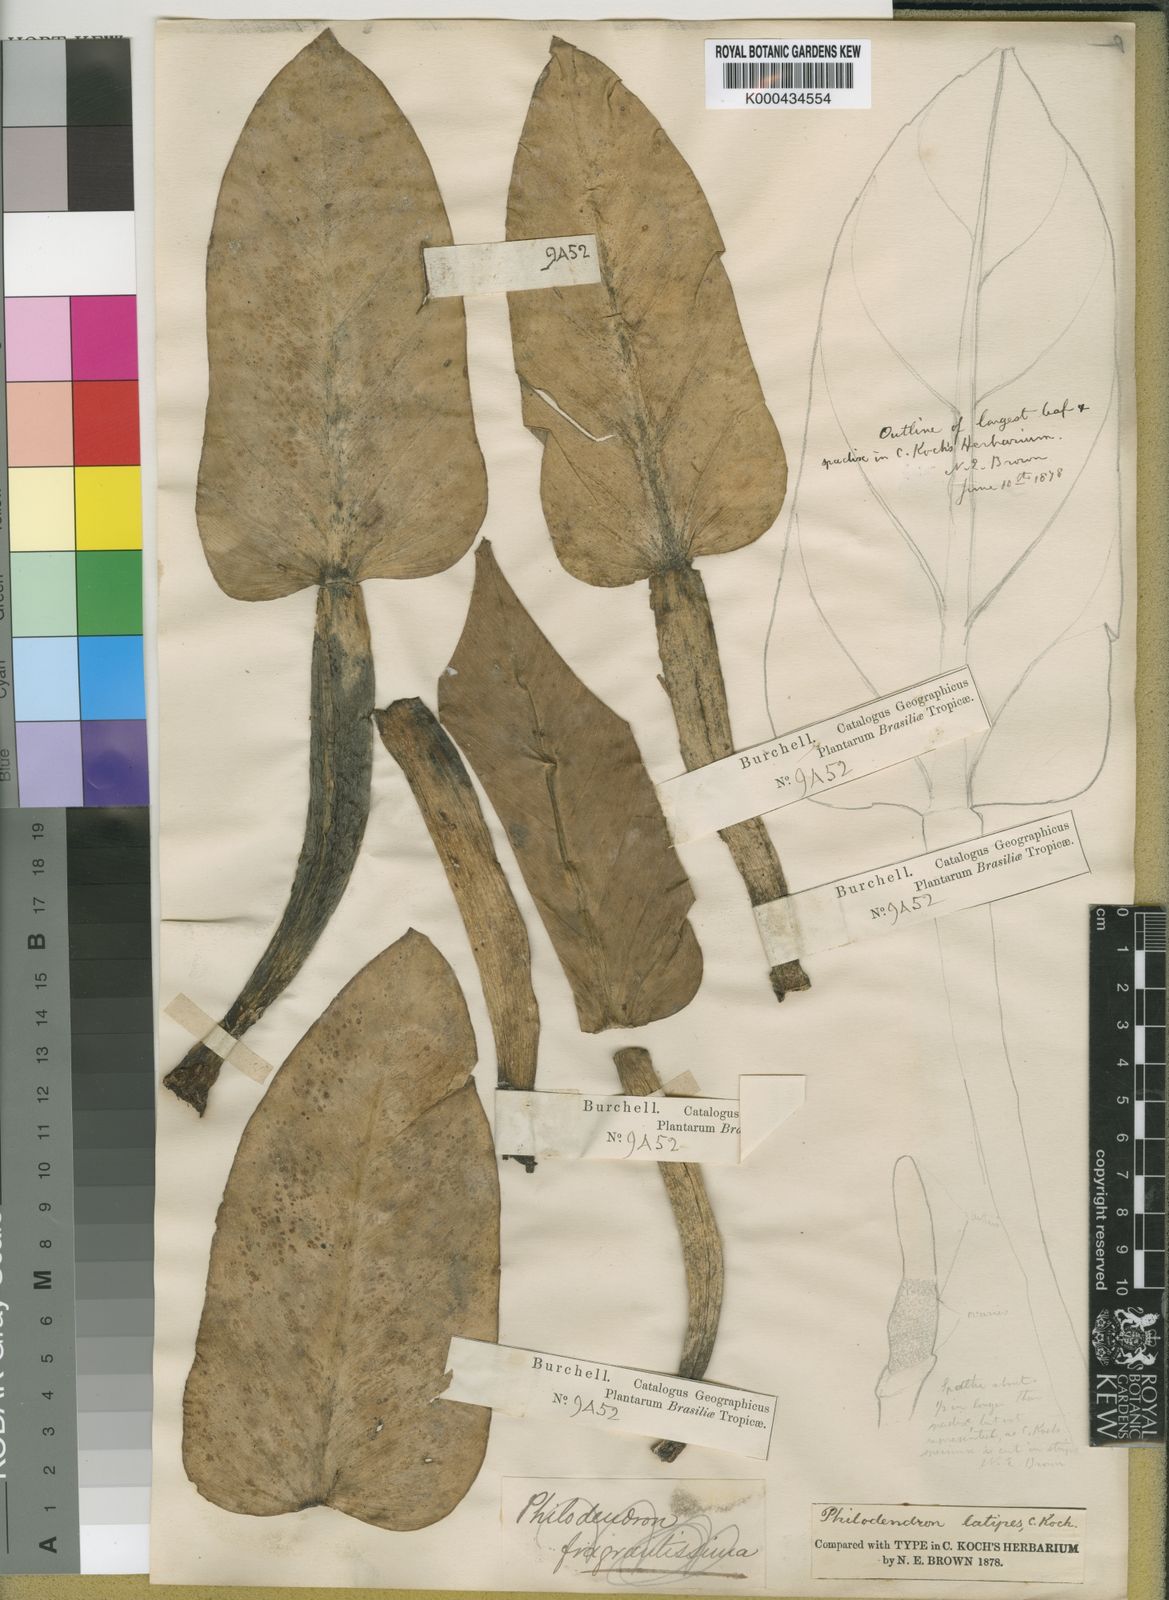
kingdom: Plantae
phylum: Tracheophyta
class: Liliopsida
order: Alismatales
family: Araceae
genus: Philodendron
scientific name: Philodendron
